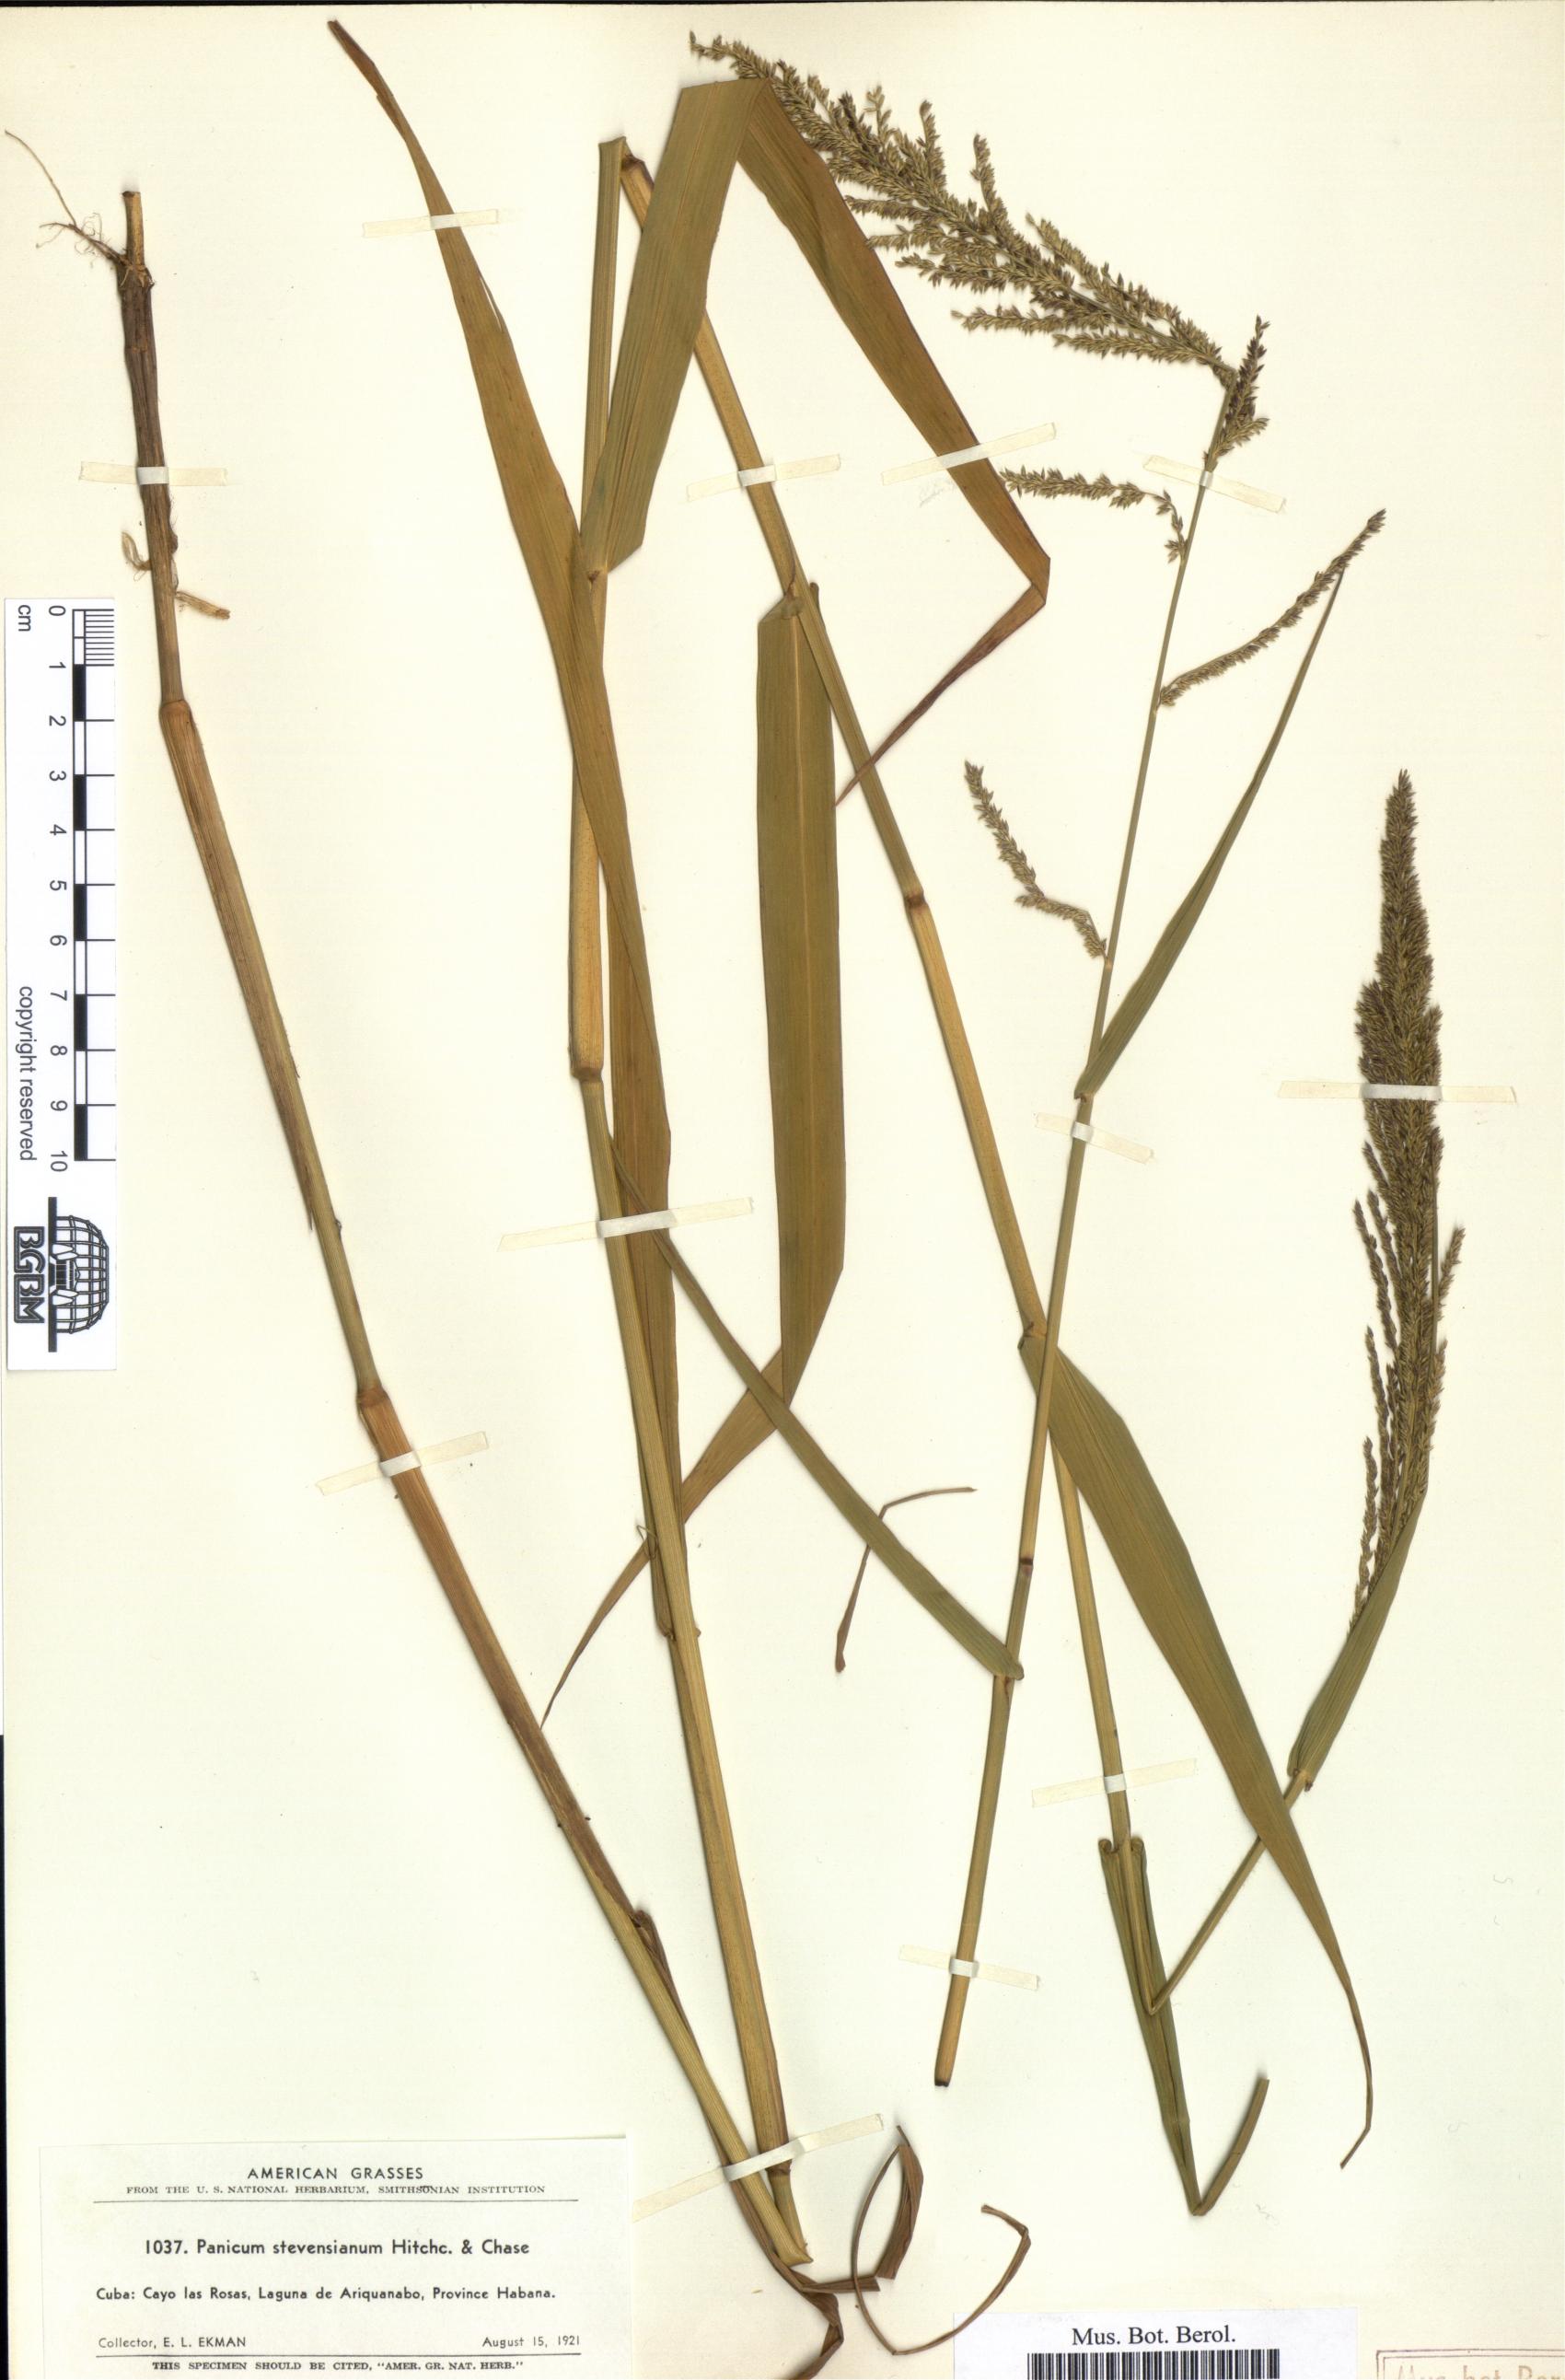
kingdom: Plantae
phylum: Tracheophyta
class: Liliopsida
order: Poales
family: Poaceae
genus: Panicum
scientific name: Panicum stevensianum
